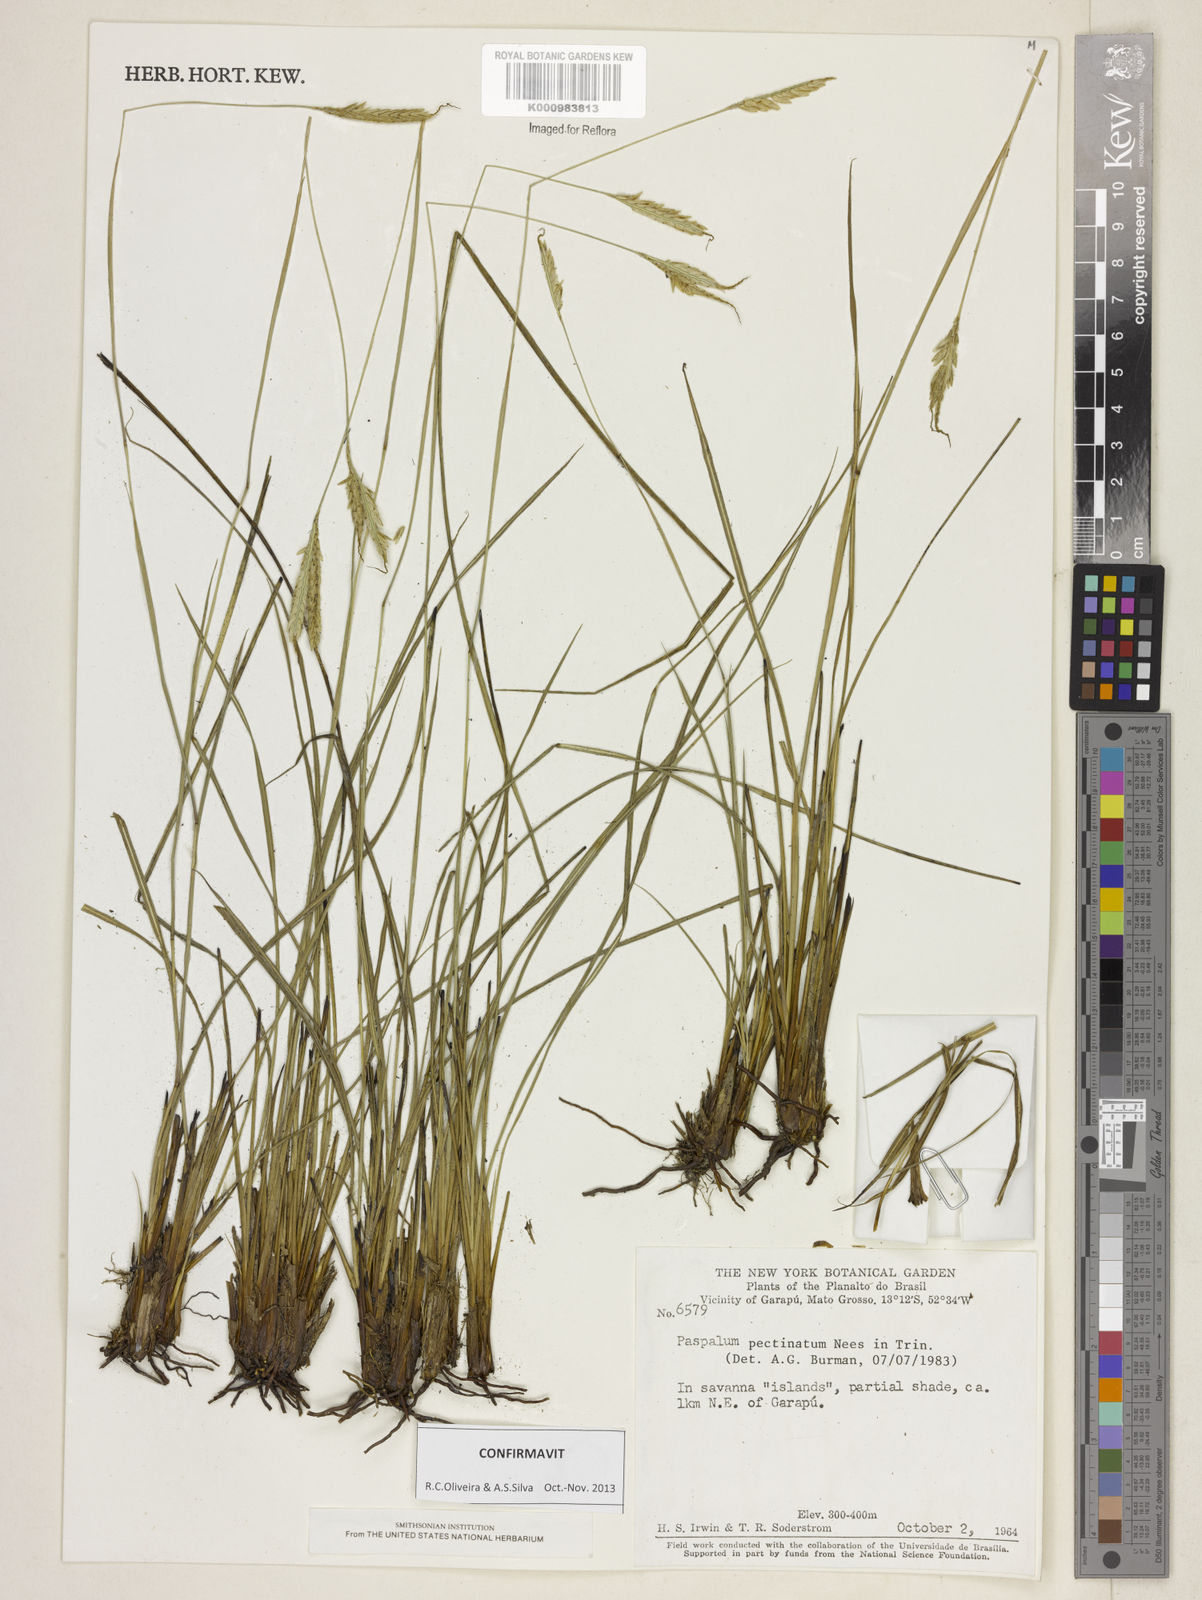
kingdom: Plantae
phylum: Tracheophyta
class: Liliopsida
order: Poales
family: Poaceae
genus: Paspalum
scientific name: Paspalum
